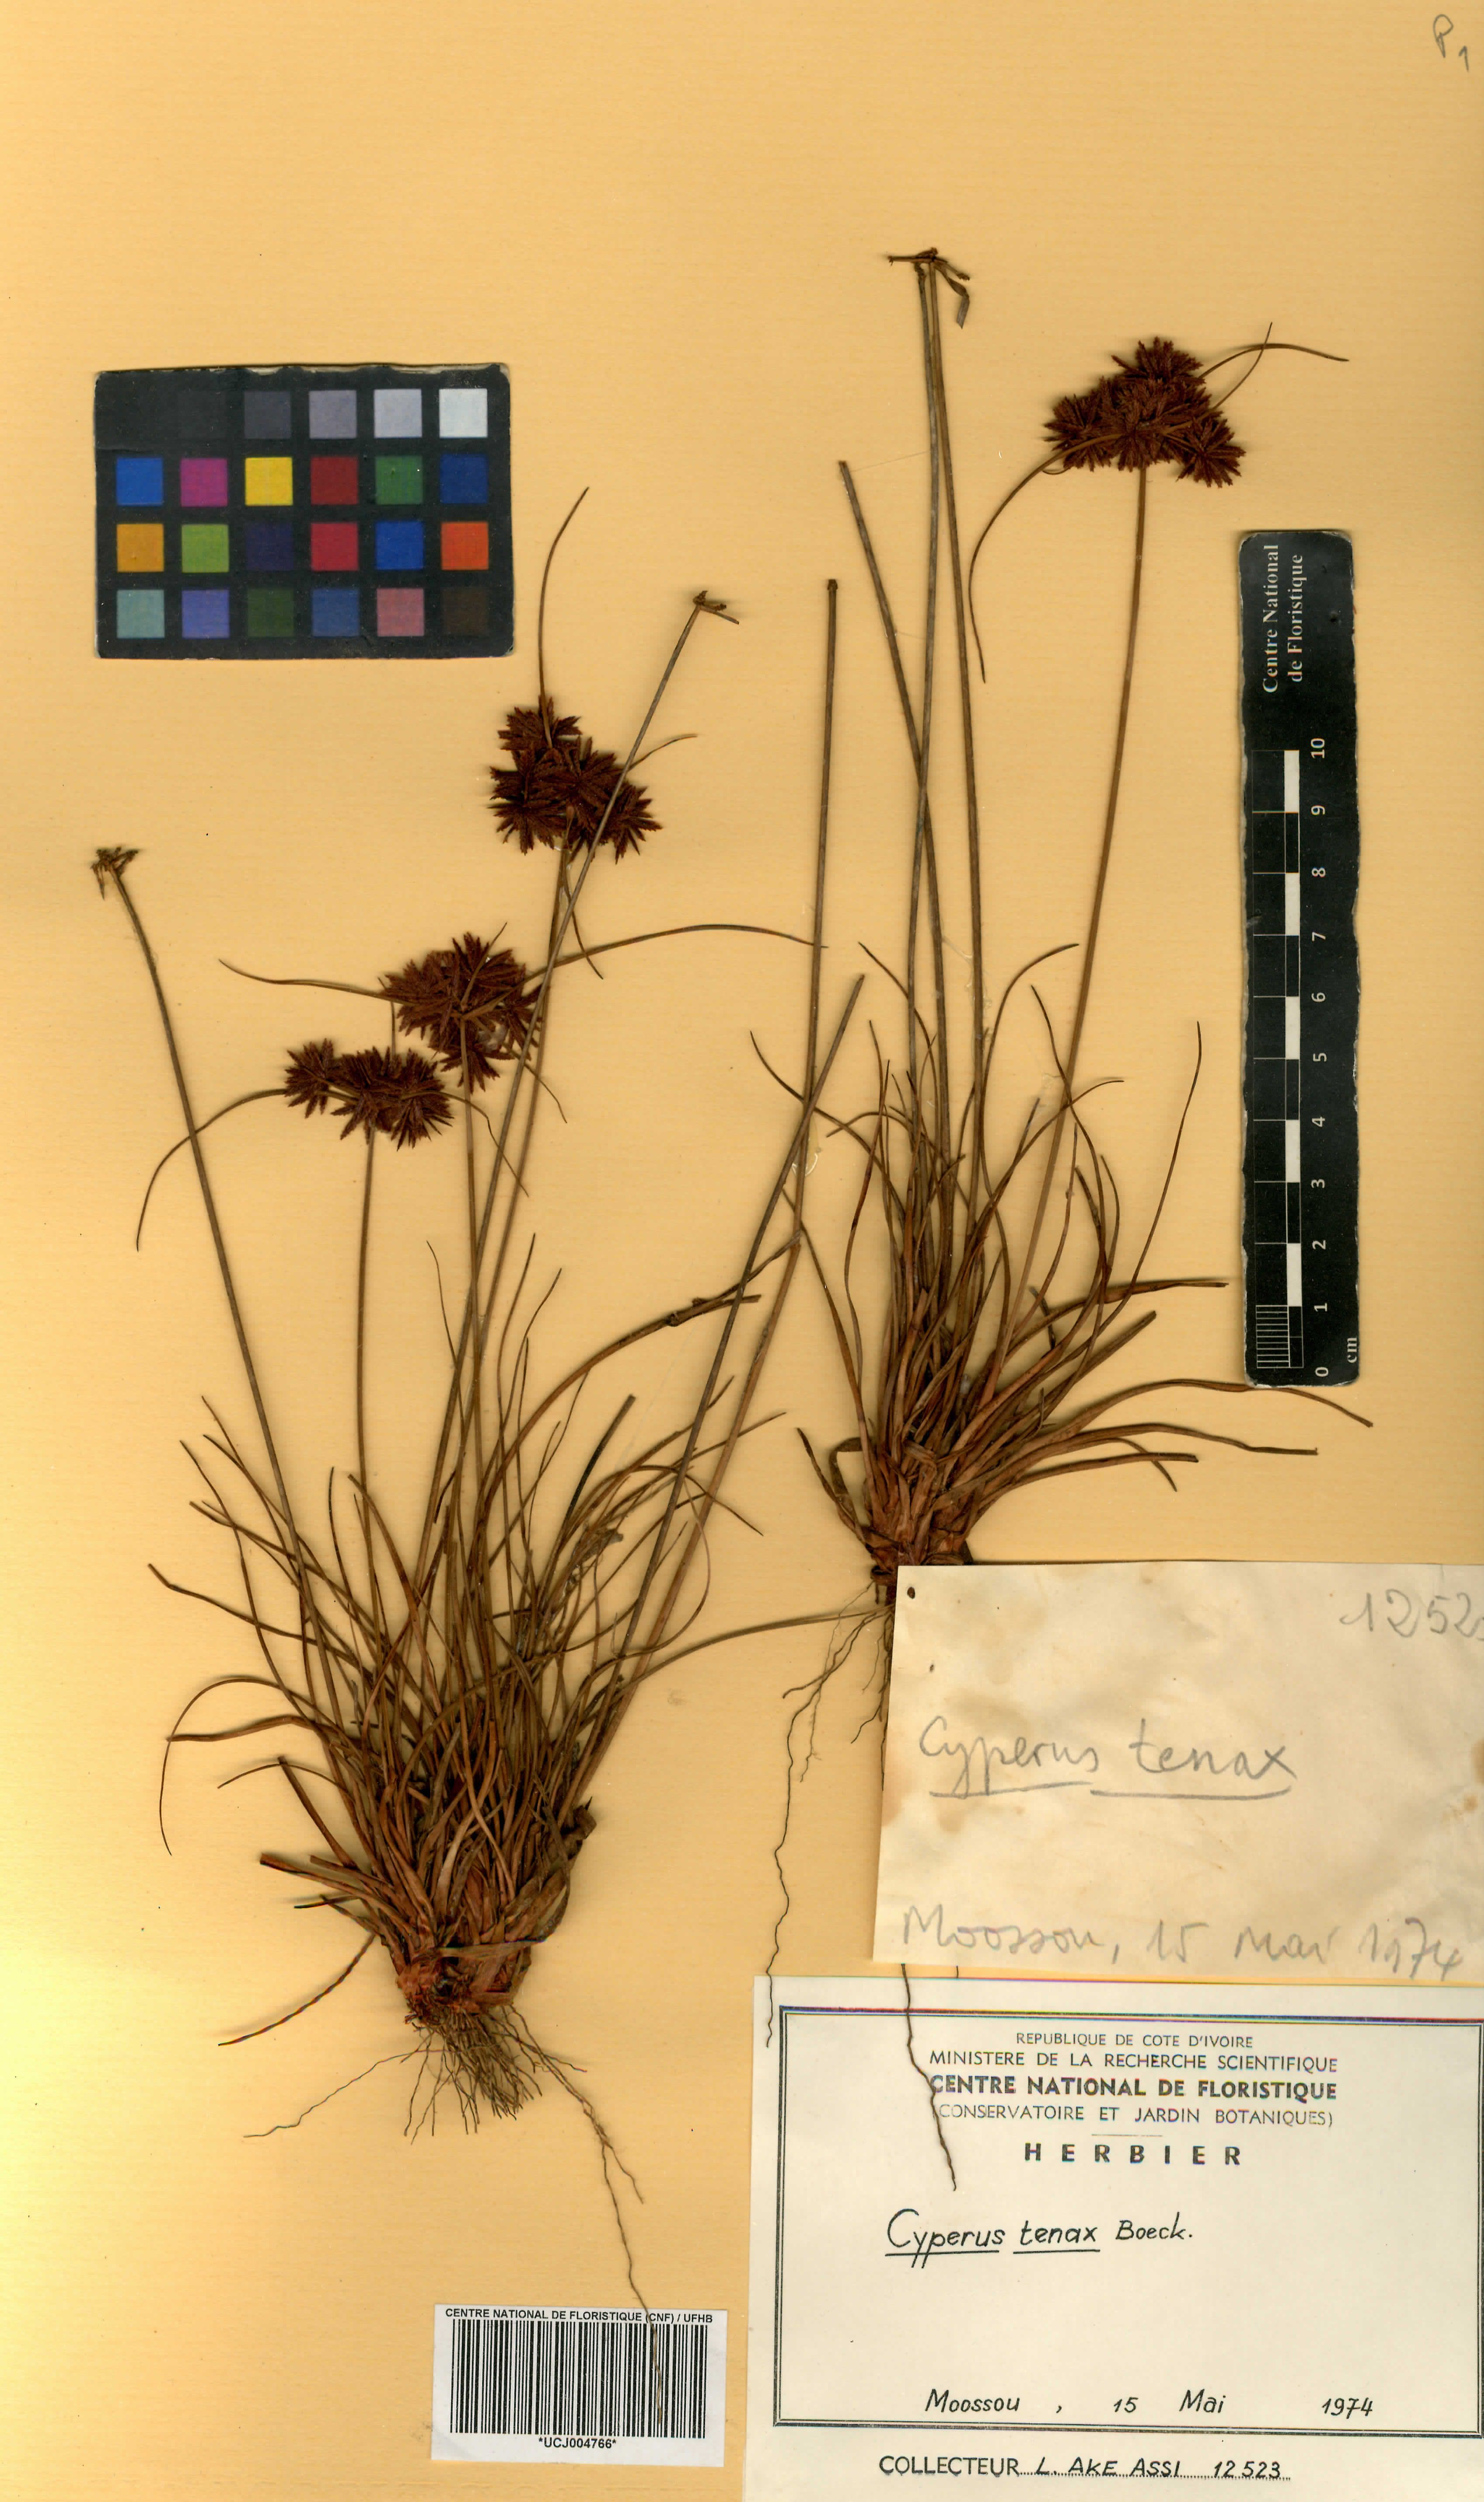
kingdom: Plantae
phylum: Tracheophyta
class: Liliopsida
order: Poales
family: Cyperaceae
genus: Cyperus
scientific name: Cyperus tenax
